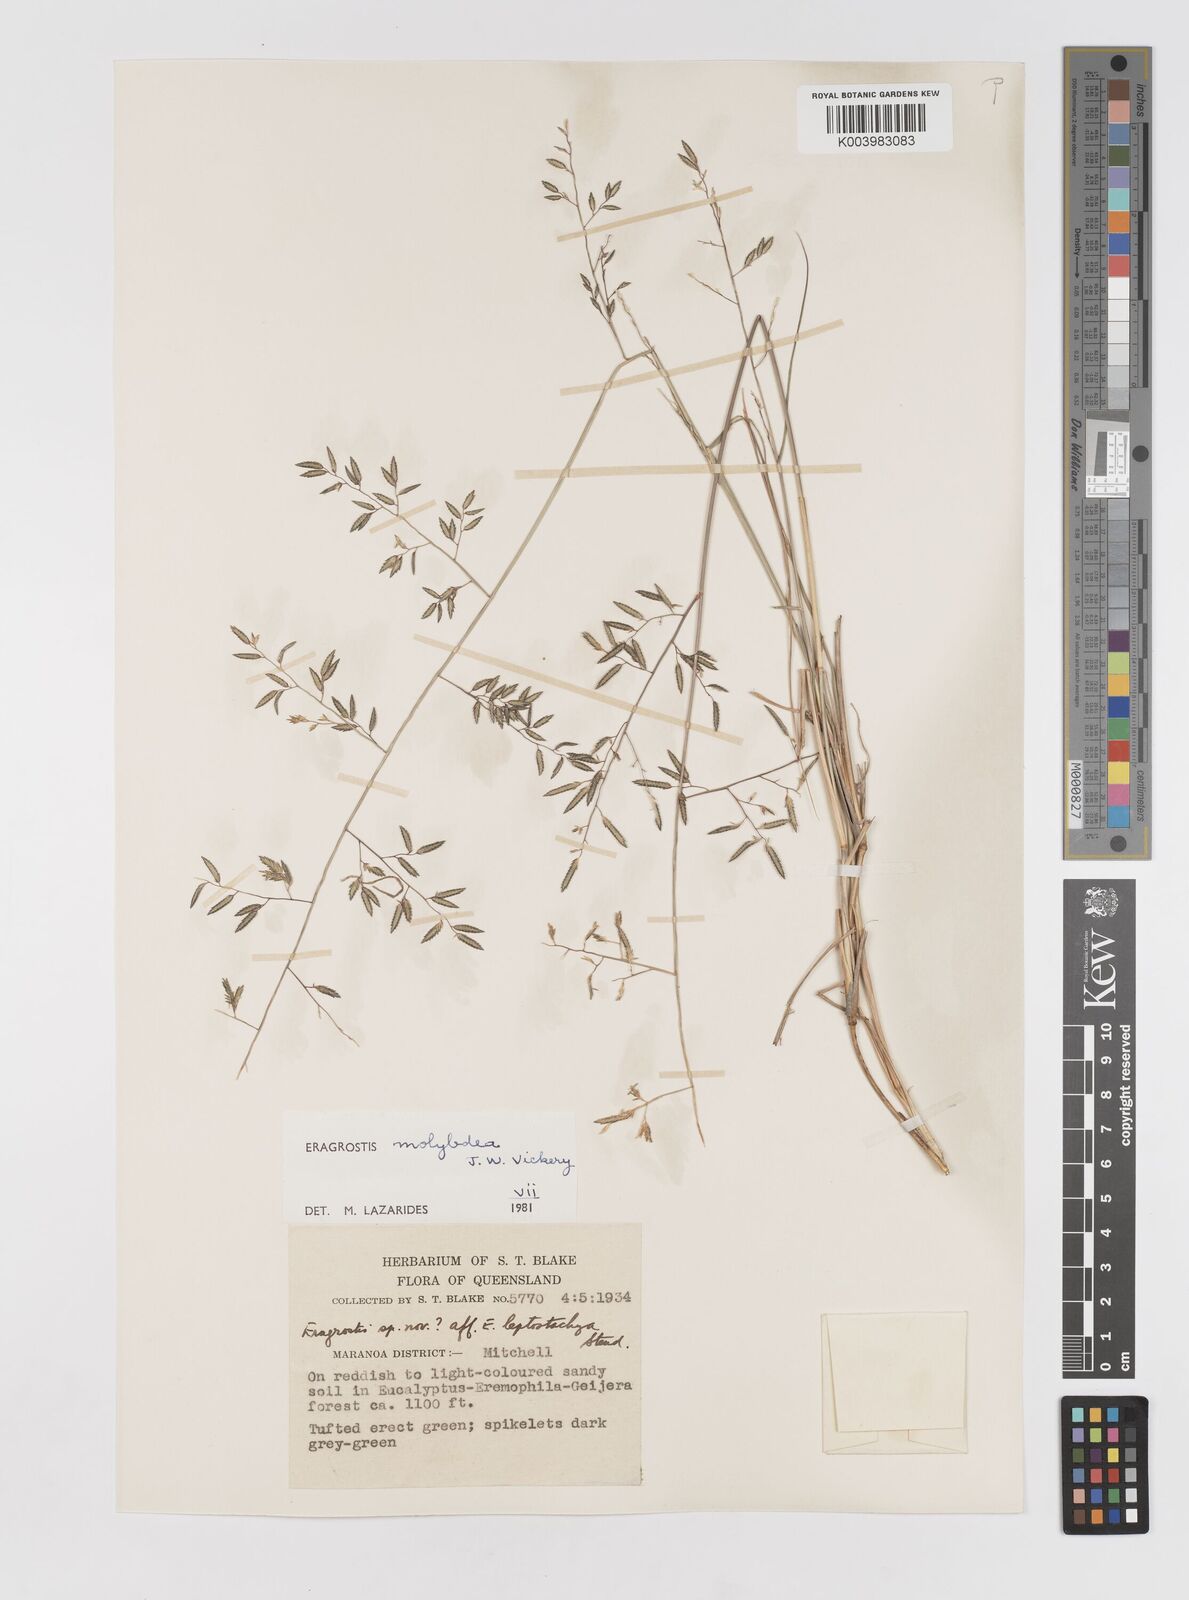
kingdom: Plantae
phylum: Tracheophyta
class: Liliopsida
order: Poales
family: Poaceae
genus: Eragrostis
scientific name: Eragrostis leptostachya
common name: Australian lovegrass
